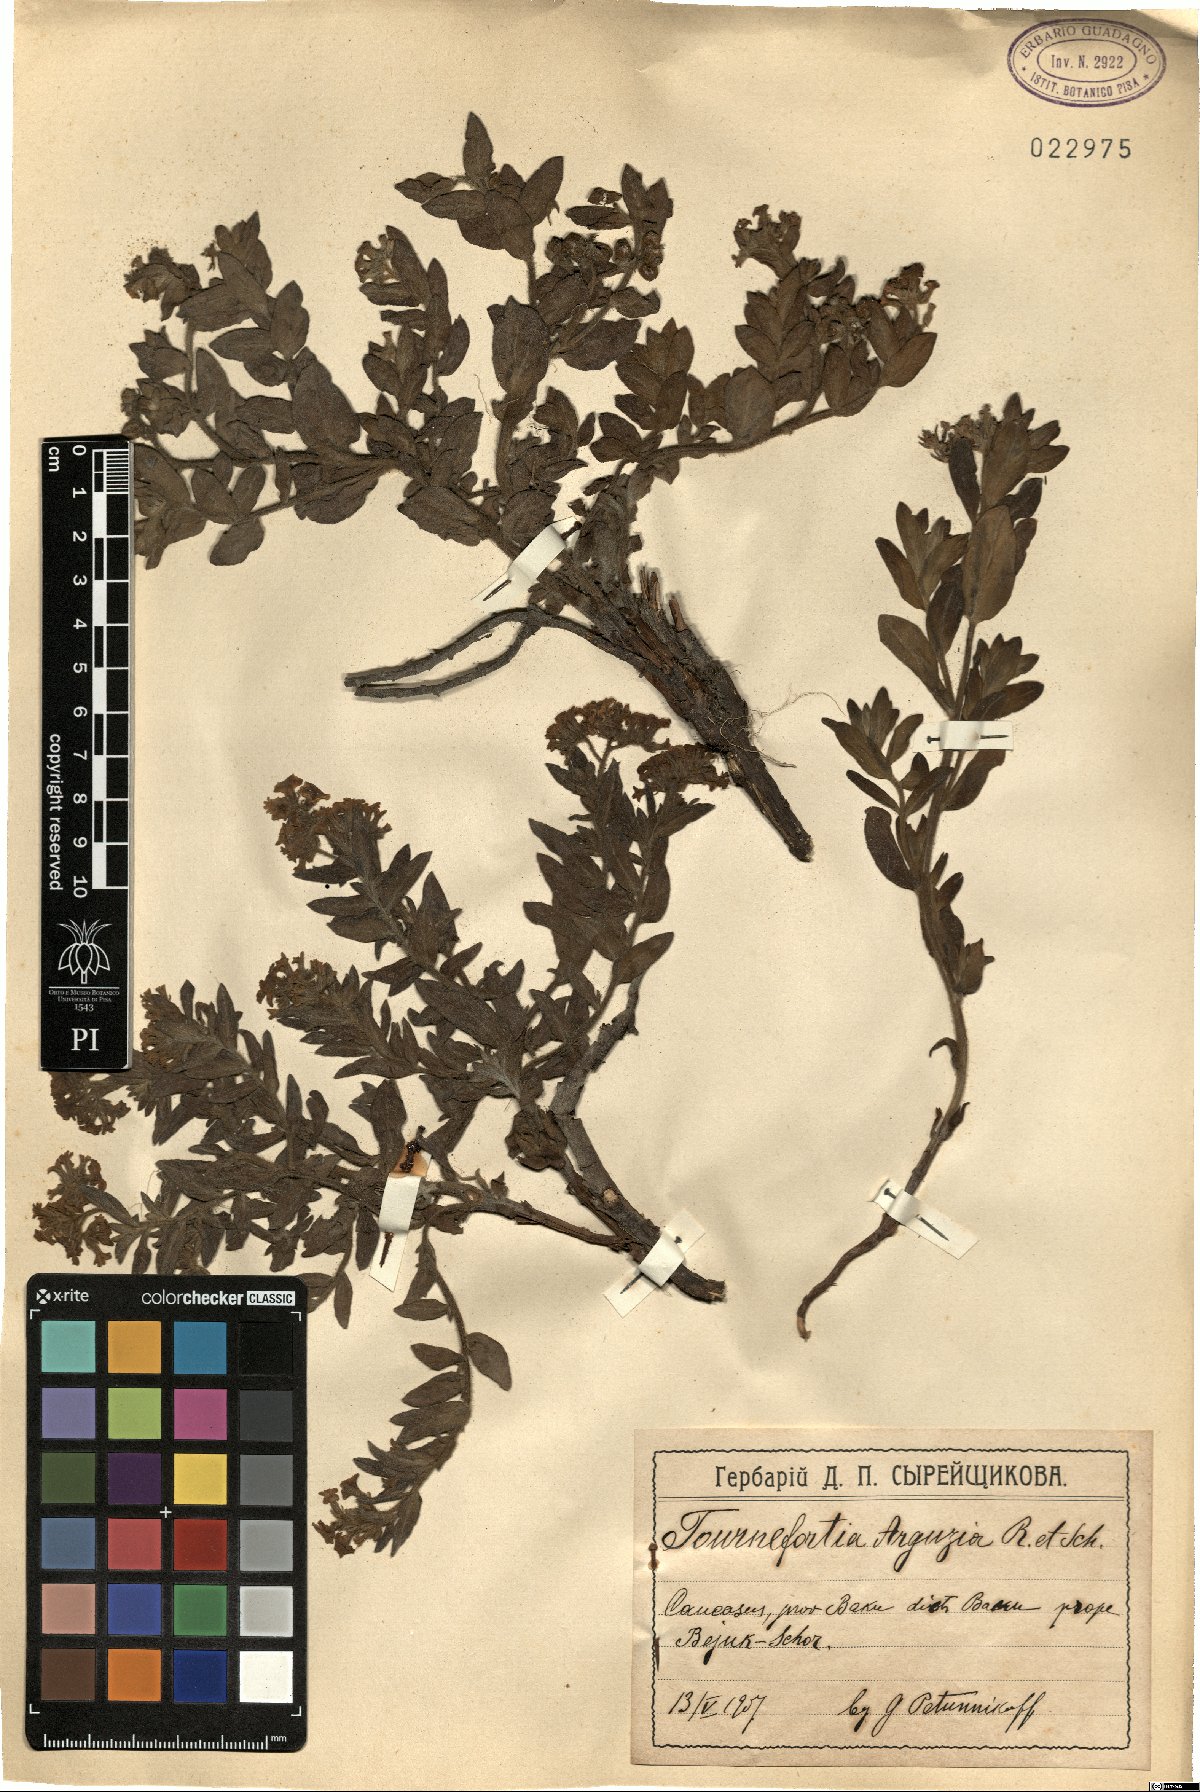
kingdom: Plantae
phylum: Tracheophyta
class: Magnoliopsida
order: Boraginales
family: Heliotropiaceae
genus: Tournefortia
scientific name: Tournefortia sibirica
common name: Siberian sea rosemary
